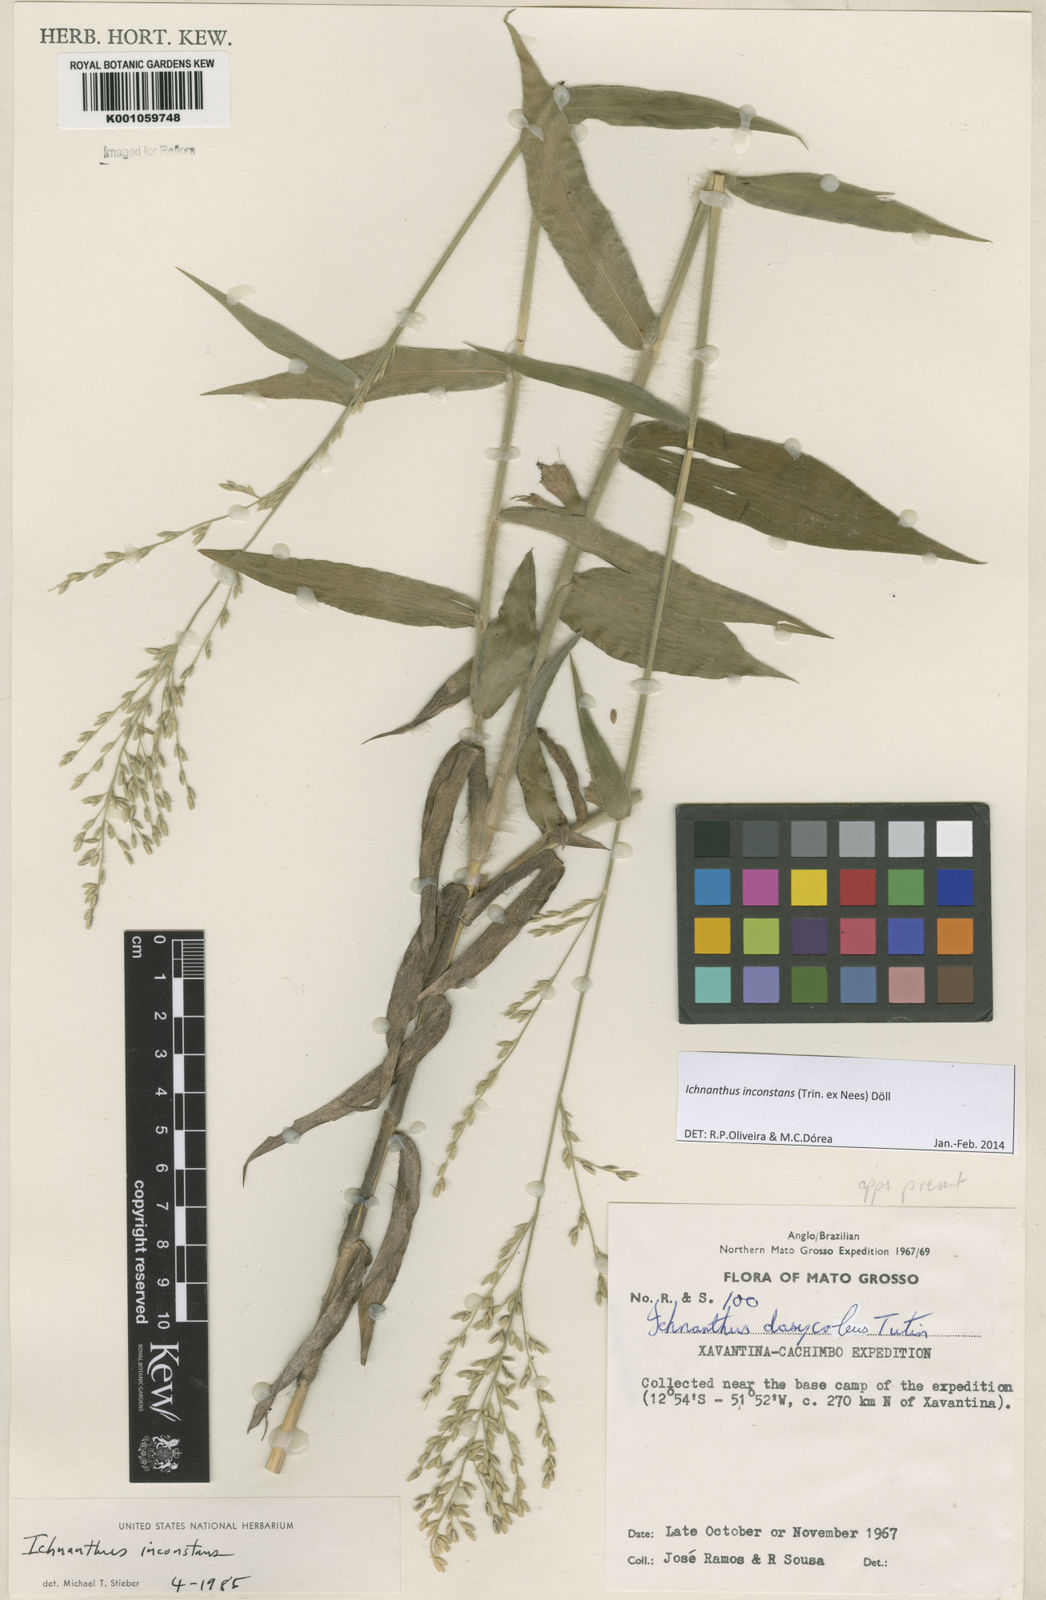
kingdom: Plantae
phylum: Tracheophyta
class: Liliopsida
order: Poales
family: Poaceae
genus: Ichnanthus
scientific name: Ichnanthus
